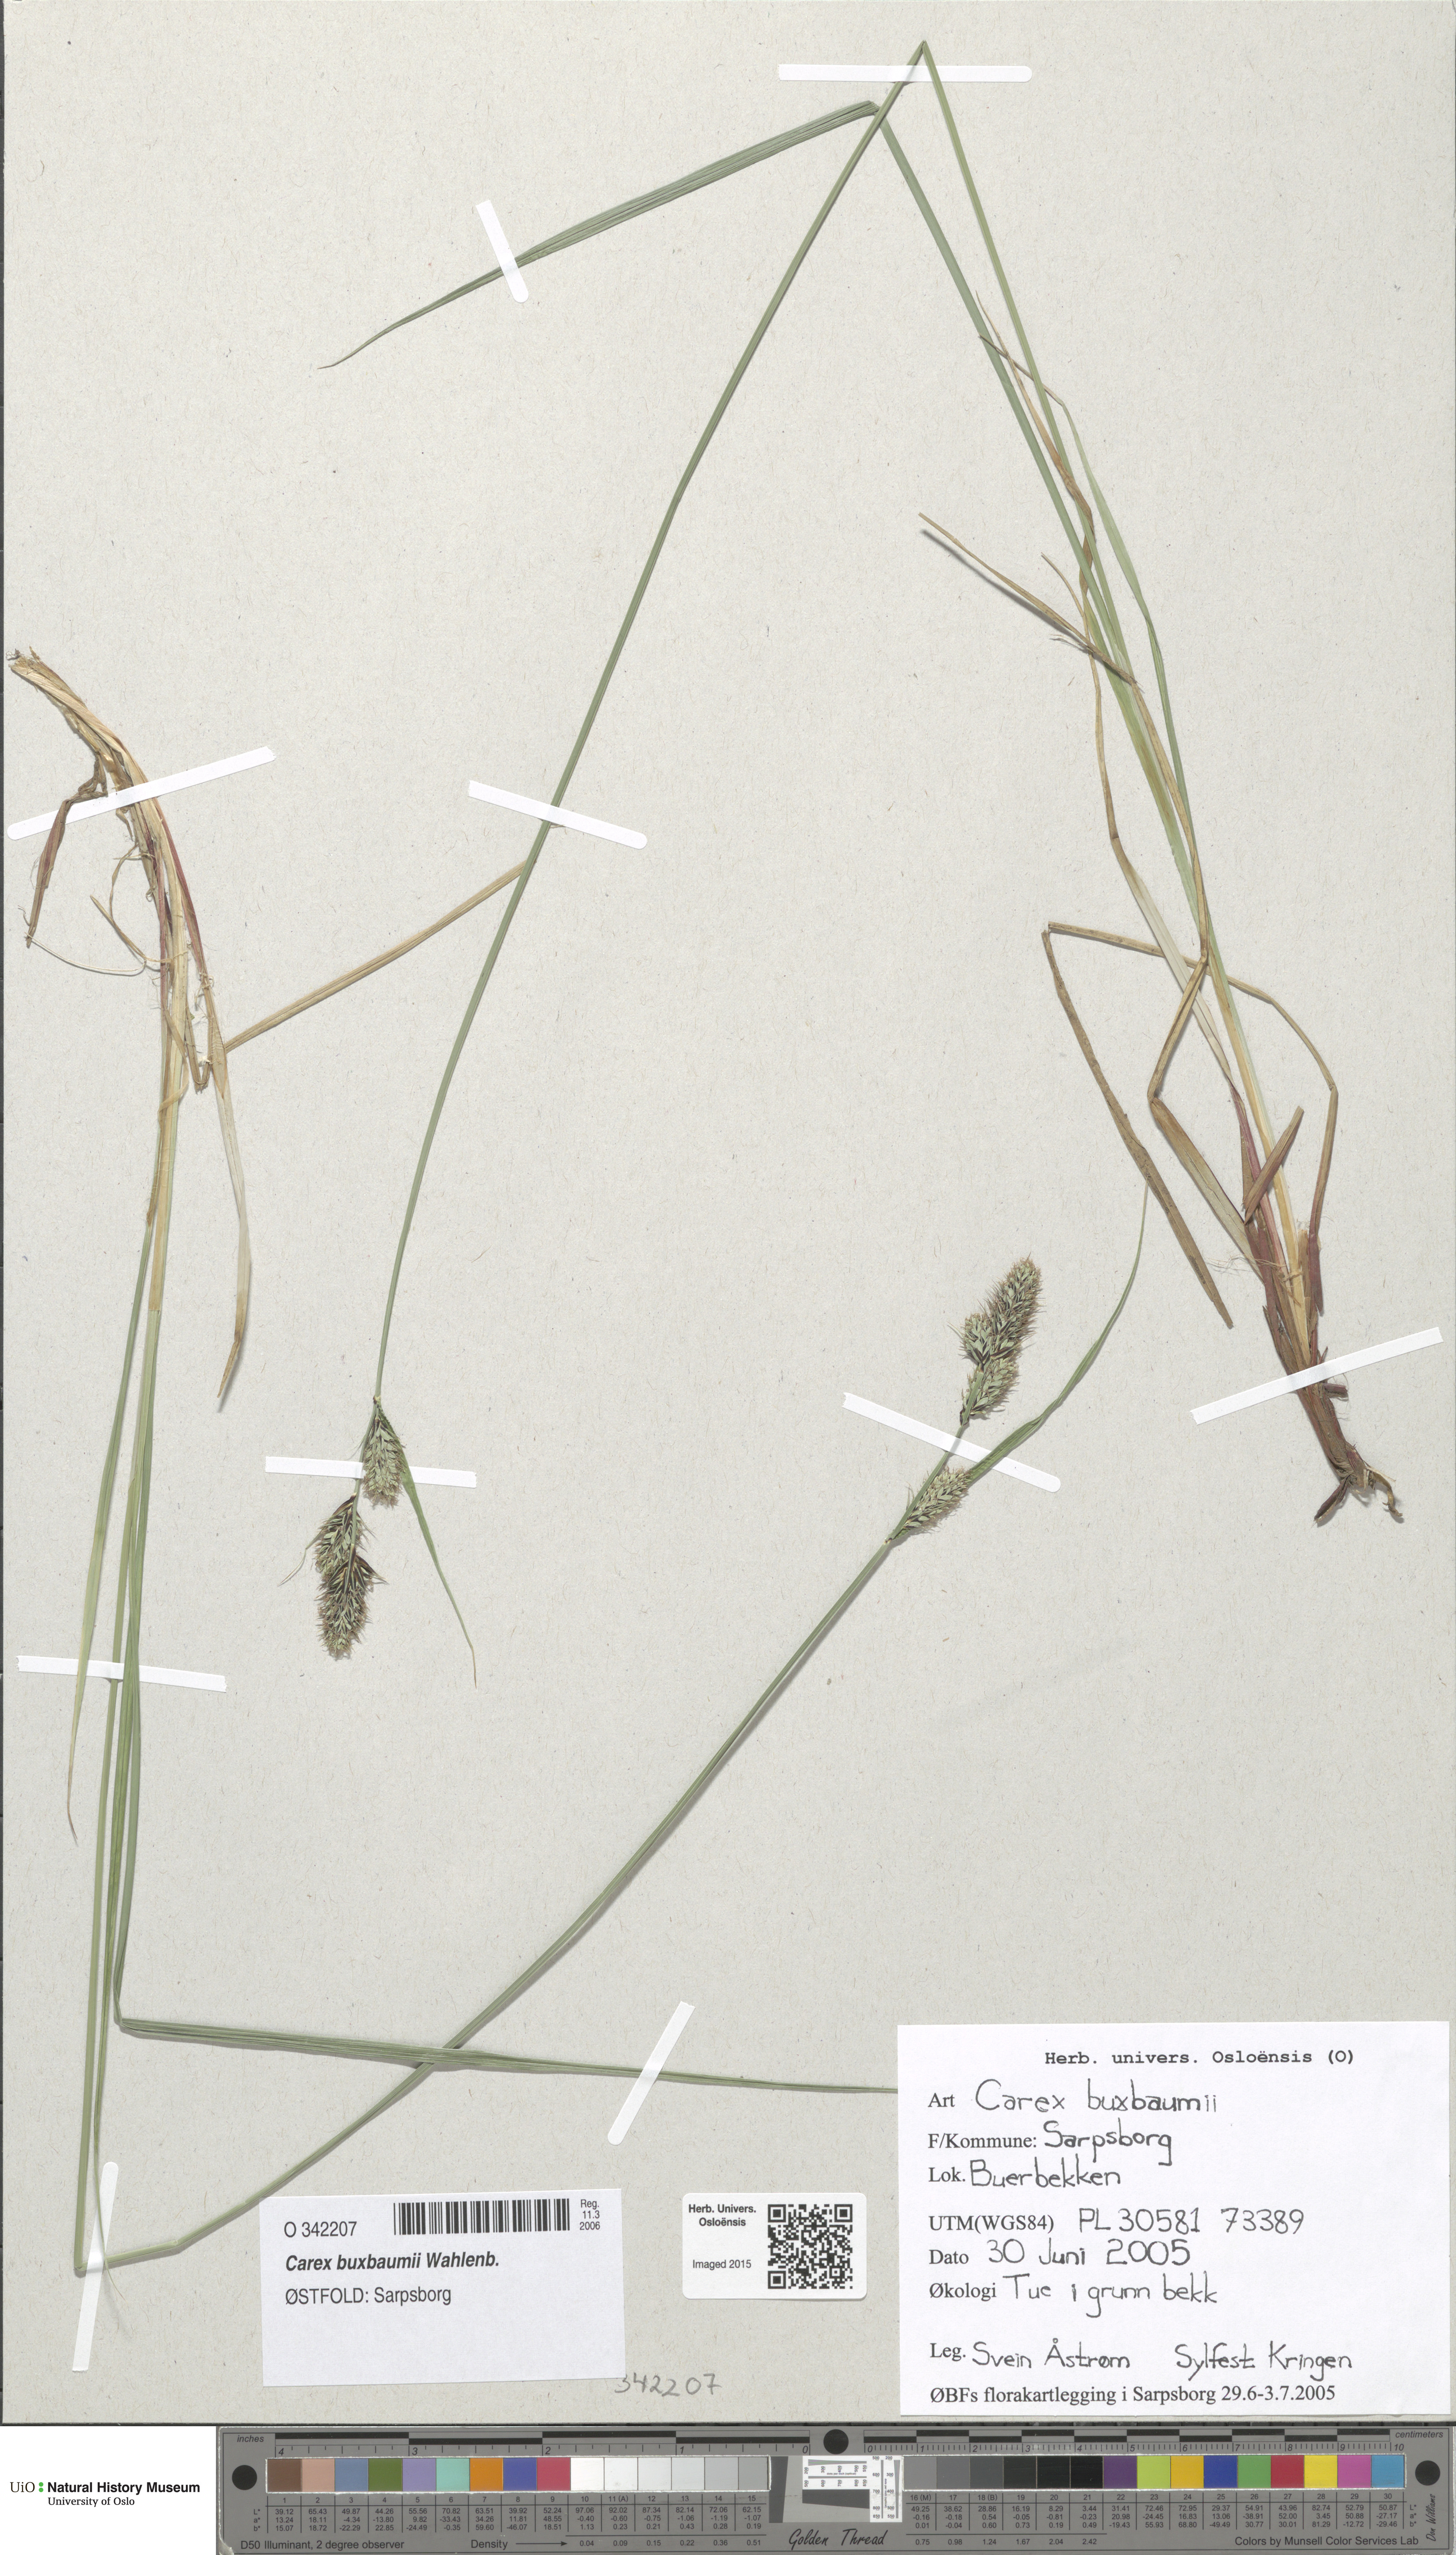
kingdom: Plantae
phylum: Tracheophyta
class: Liliopsida
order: Poales
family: Cyperaceae
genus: Carex
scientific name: Carex buxbaumii
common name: Club sedge
